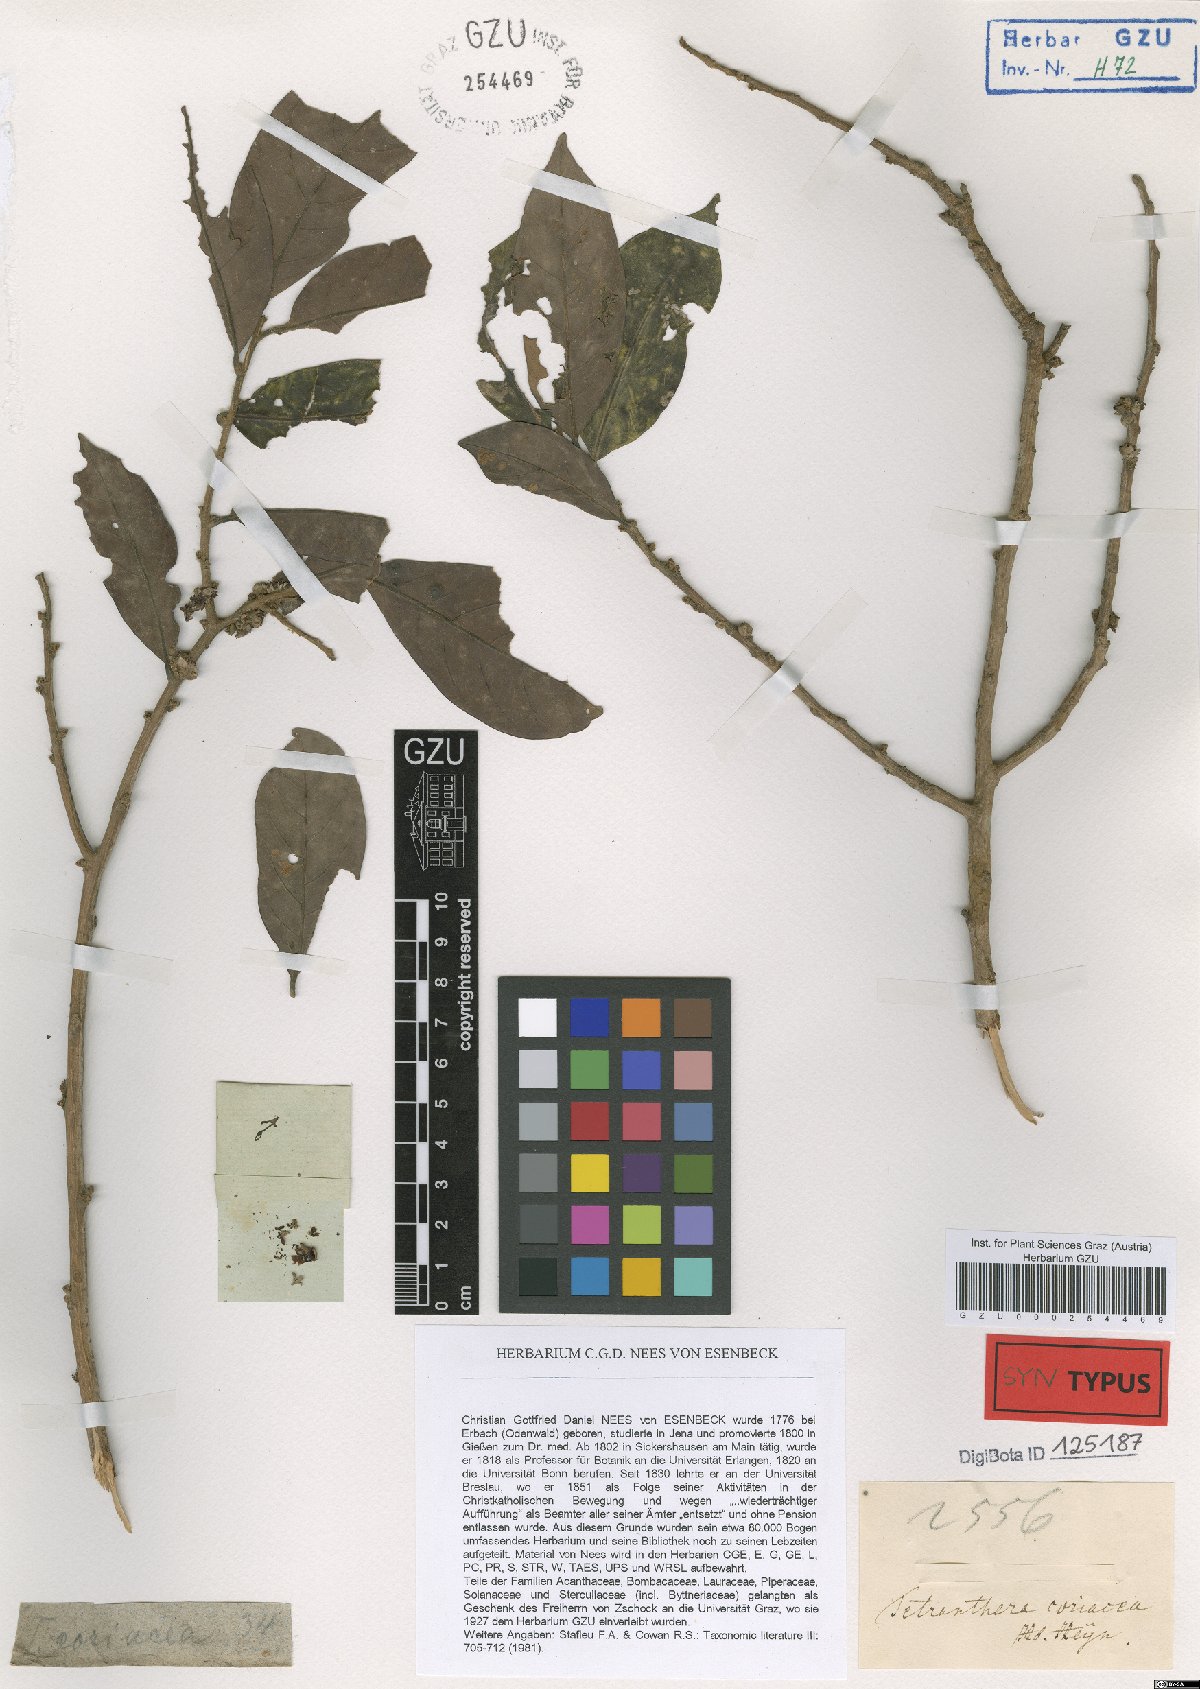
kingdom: Plantae
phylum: Tracheophyta
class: Magnoliopsida
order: Laurales
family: Lauraceae
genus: Litsea
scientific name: Litsea coriacea
